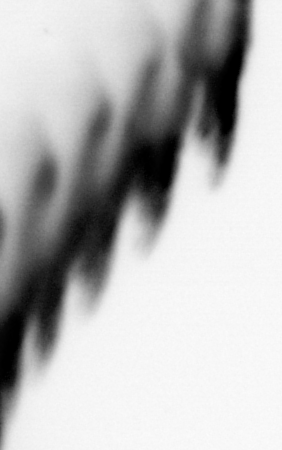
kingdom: Animalia
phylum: Annelida
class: Polychaeta
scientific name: Polychaeta
